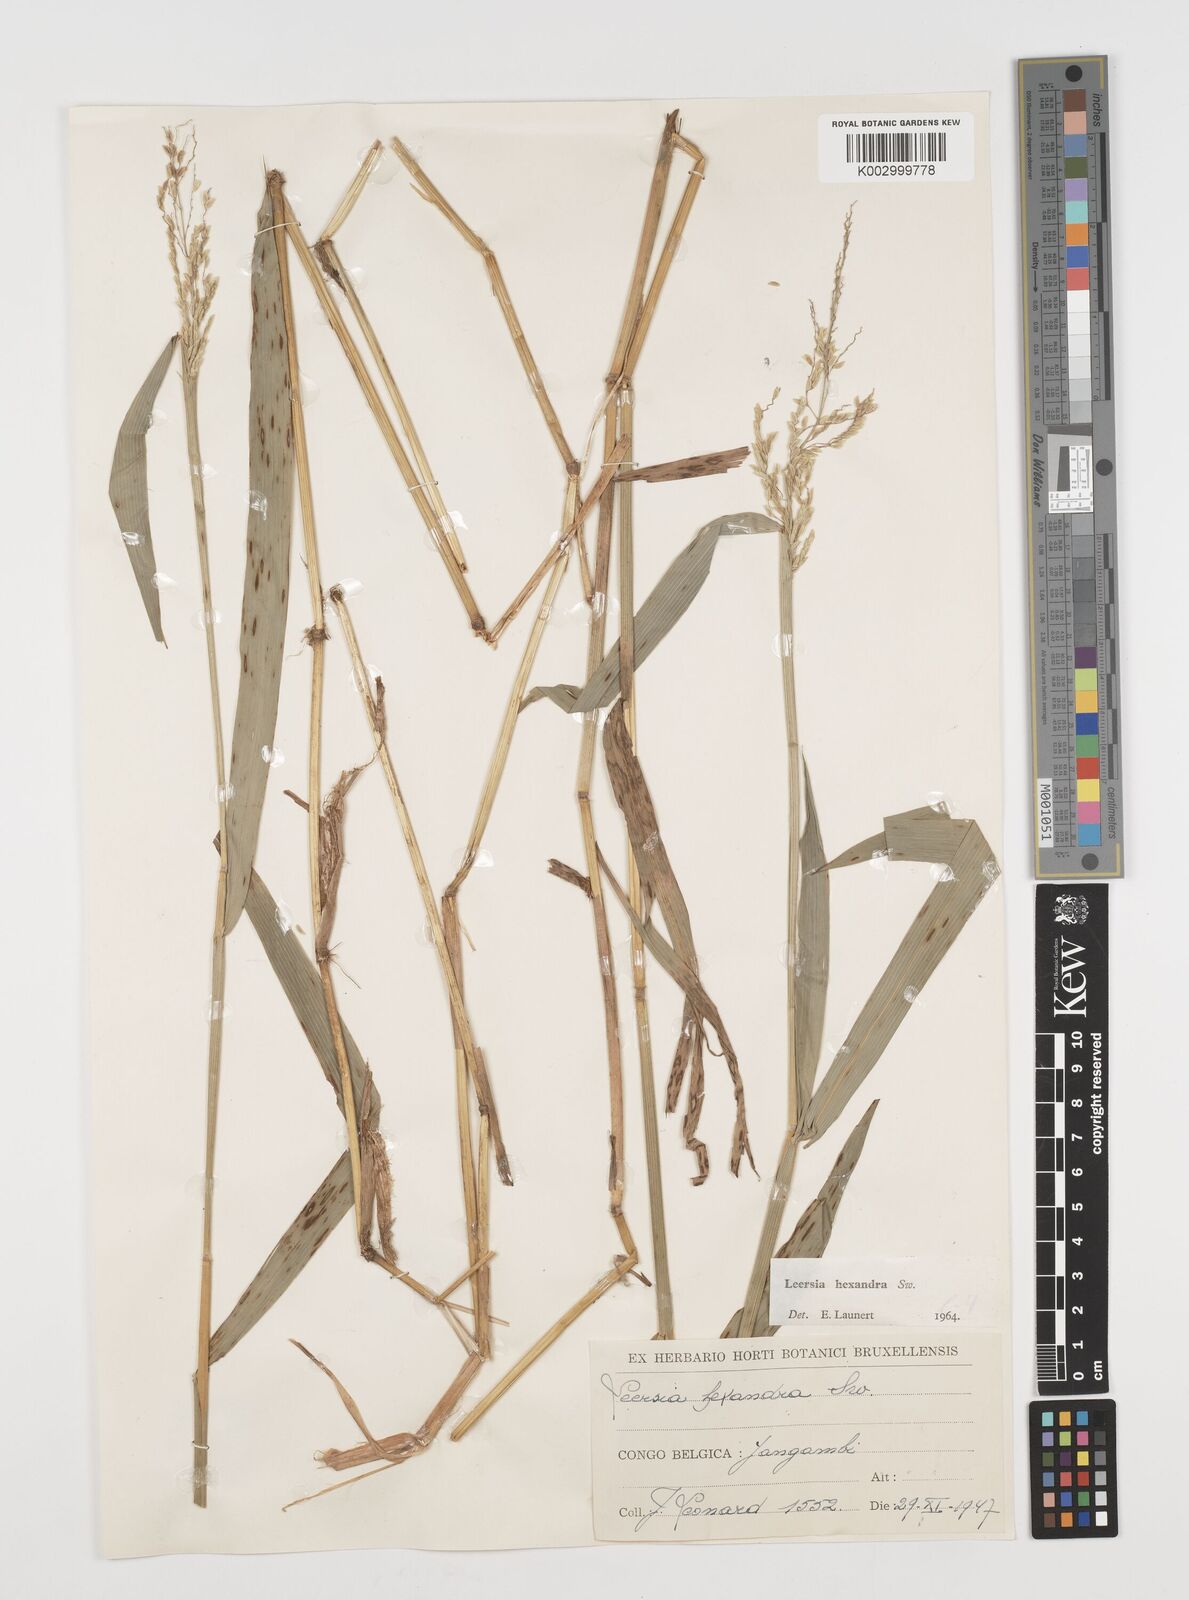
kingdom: Plantae
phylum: Tracheophyta
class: Liliopsida
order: Poales
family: Poaceae
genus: Leersia
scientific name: Leersia hexandra
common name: Southern cut grass
